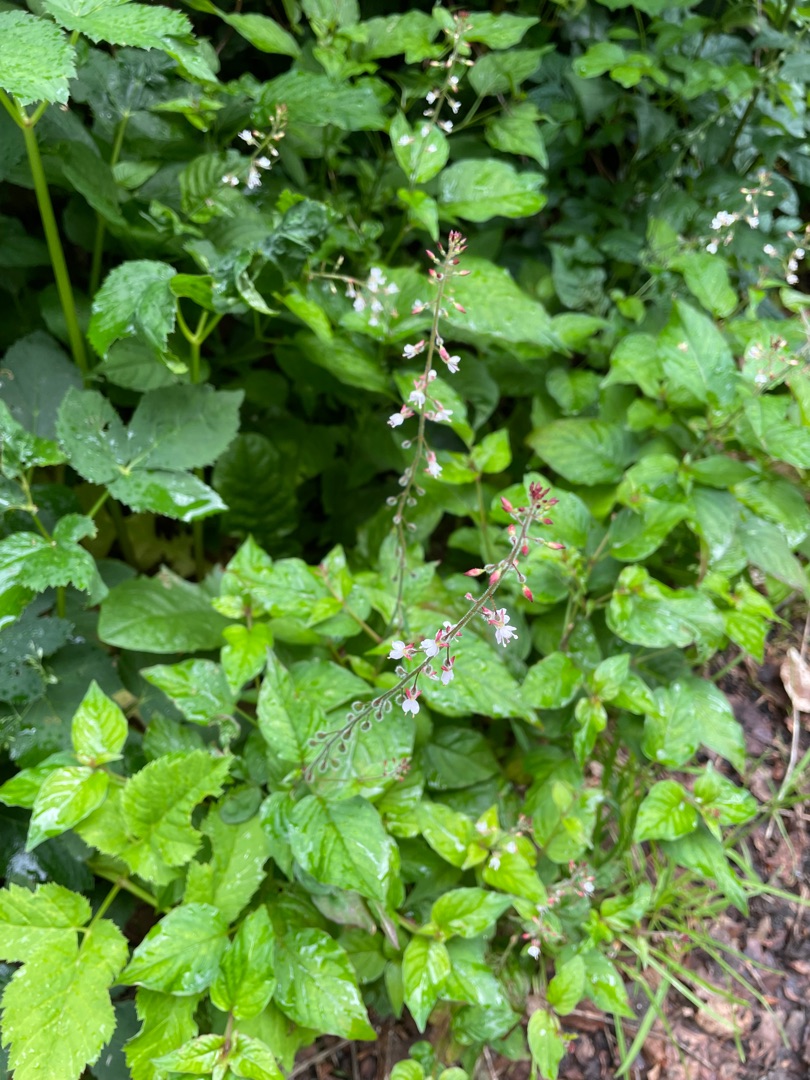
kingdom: Plantae
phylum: Tracheophyta
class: Magnoliopsida
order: Myrtales
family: Onagraceae
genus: Circaea
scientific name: Circaea lutetiana
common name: Dunet steffensurt
